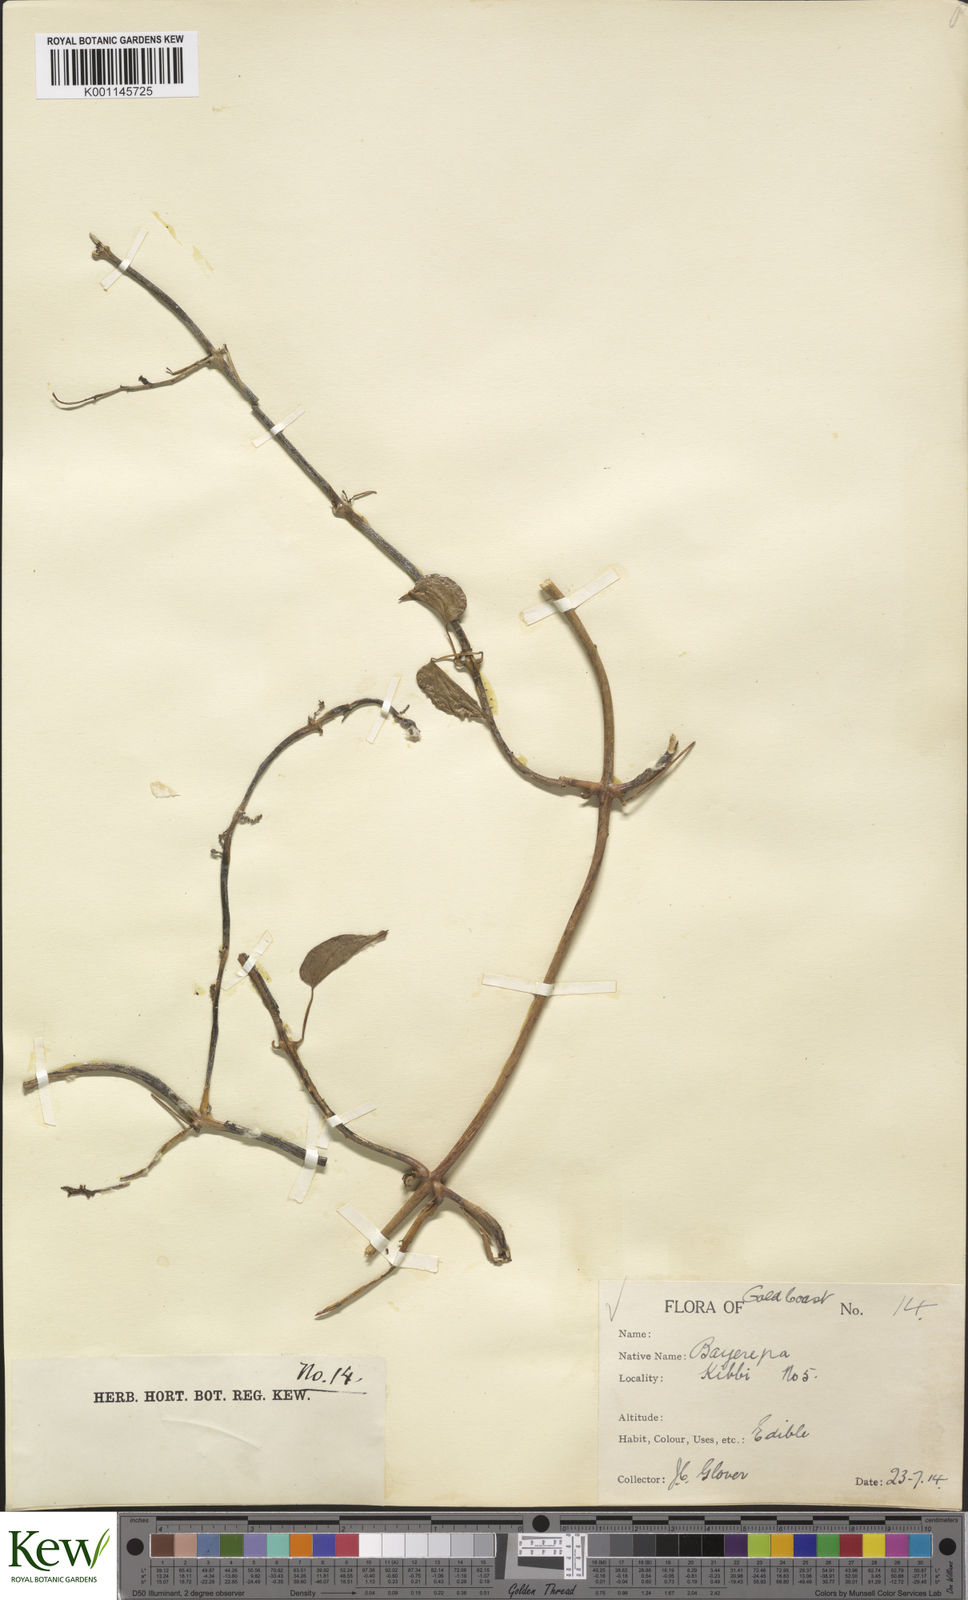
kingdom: Plantae
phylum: Tracheophyta
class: Liliopsida
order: Dioscoreales
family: Dioscoreaceae
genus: Dioscorea
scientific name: Dioscorea cayenensis
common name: Attoto yam
